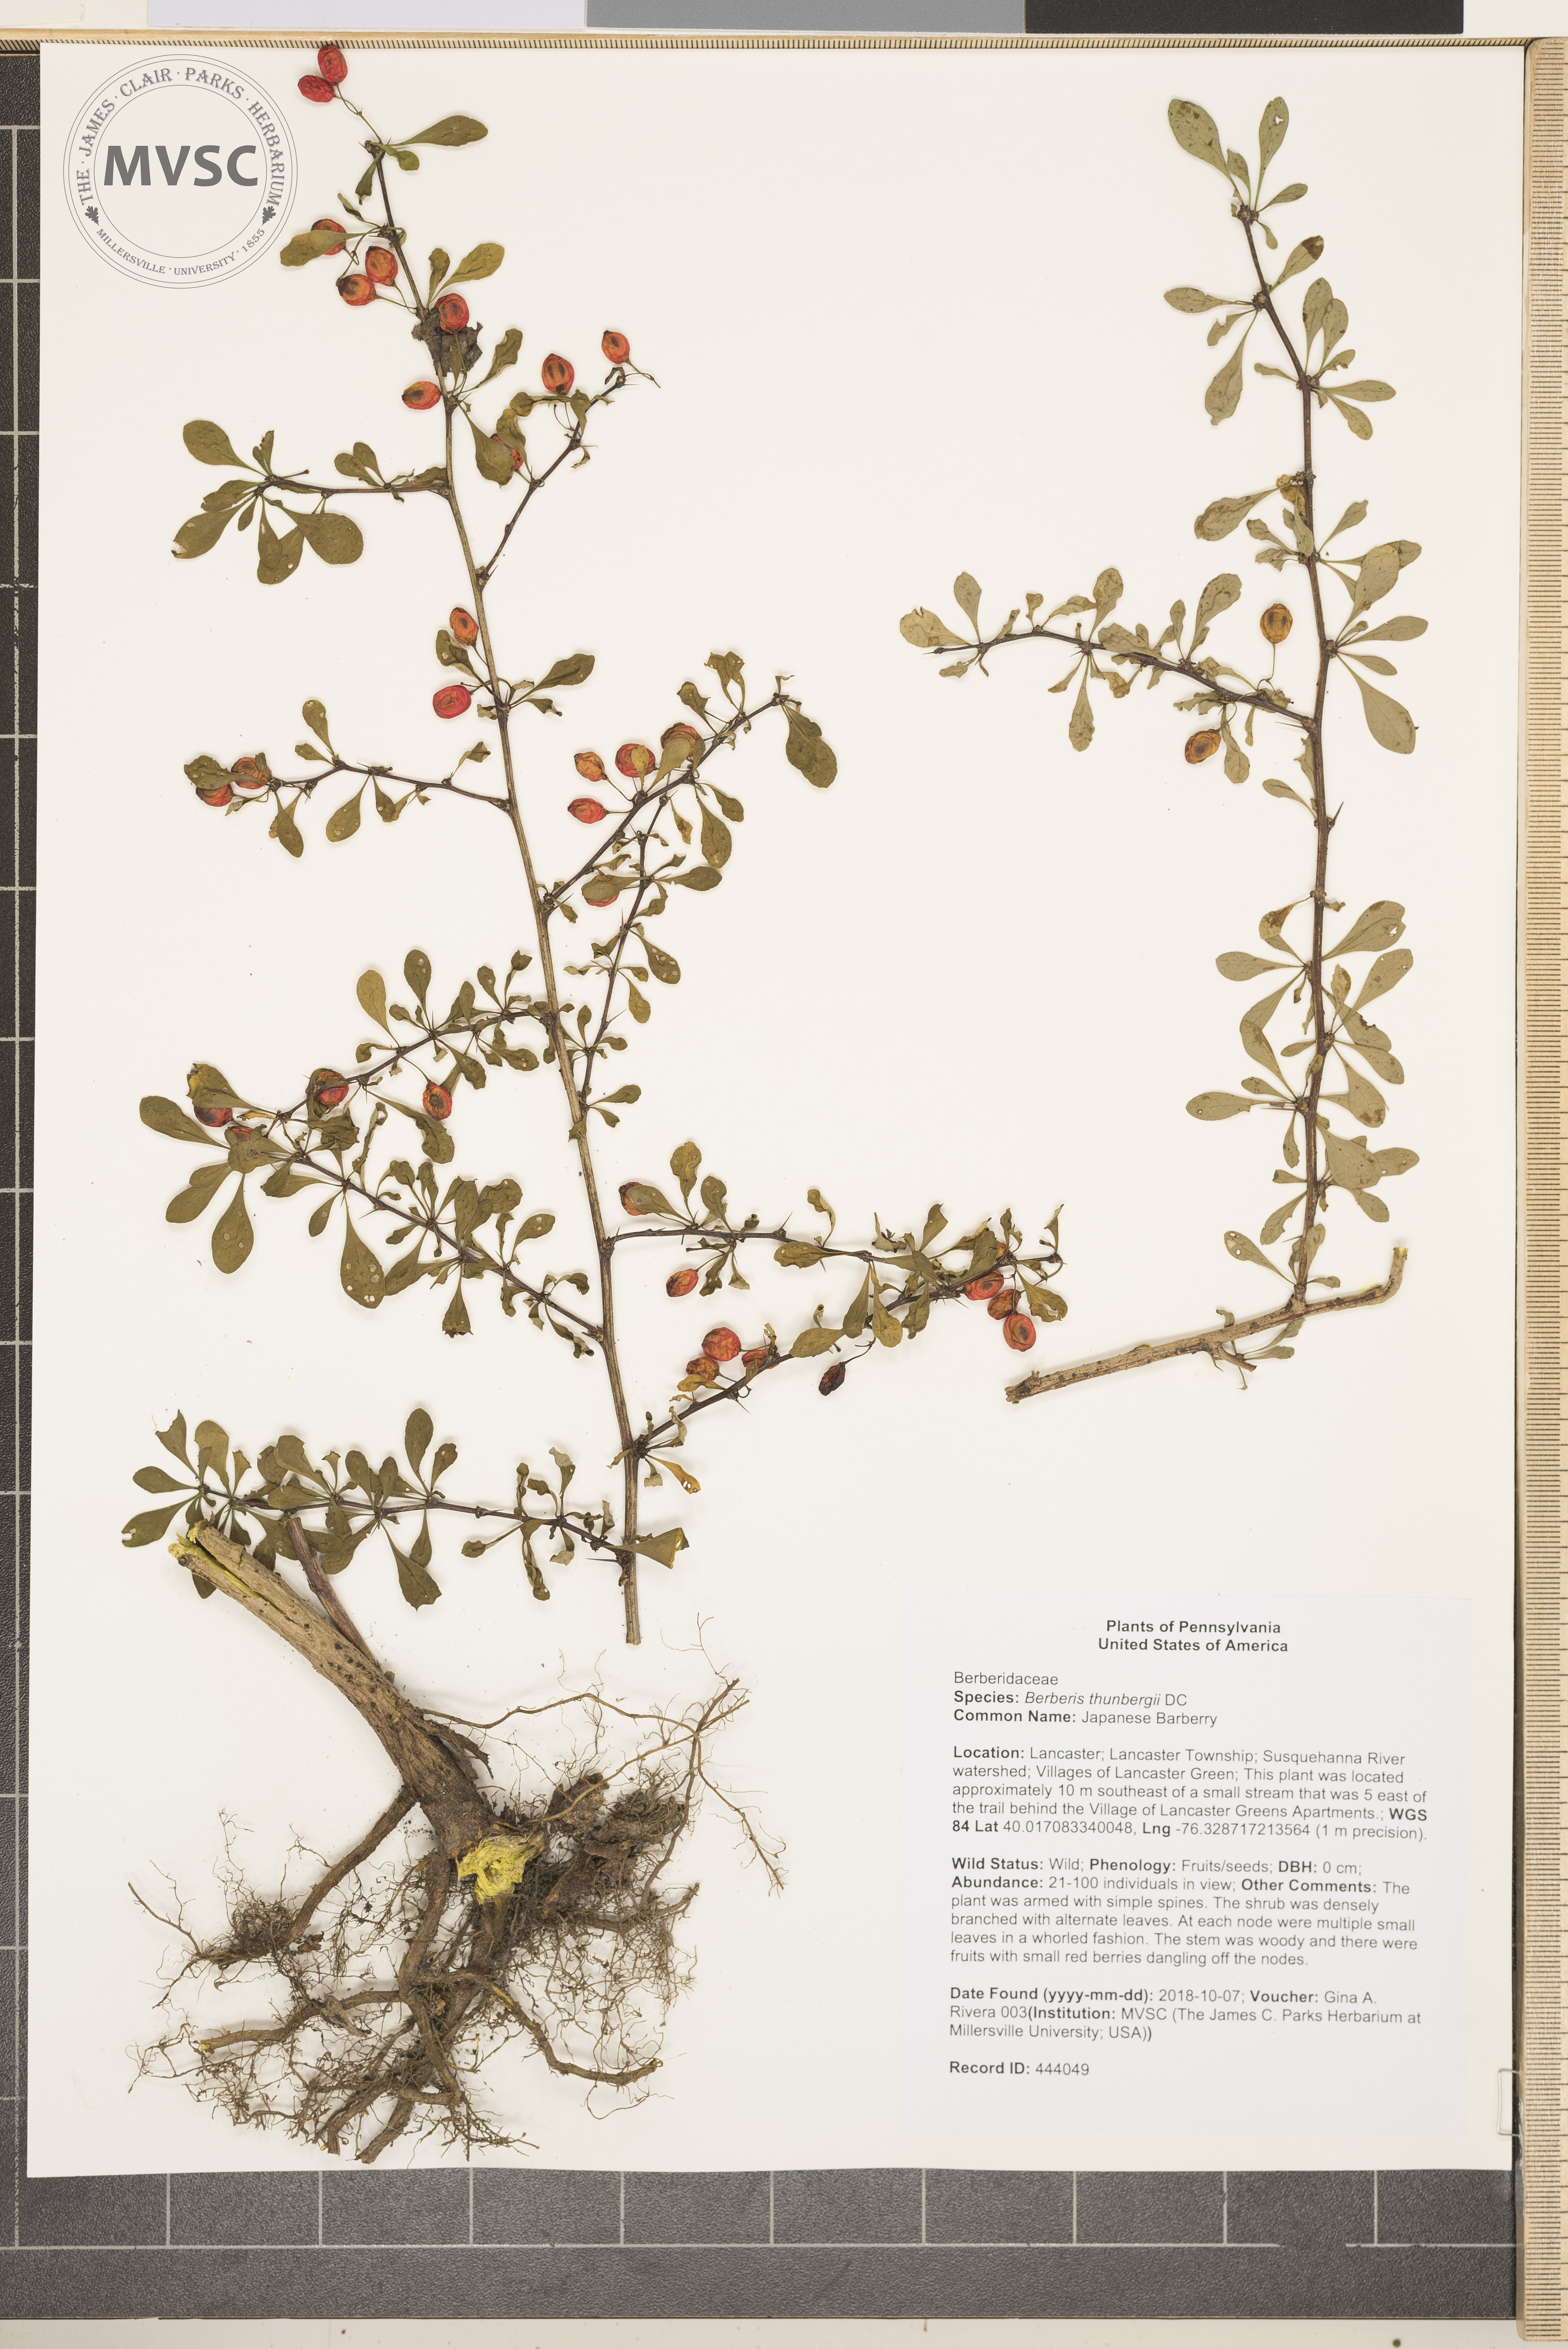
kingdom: Plantae
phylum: Tracheophyta
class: Magnoliopsida
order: Ranunculales
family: Berberidaceae
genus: Berberis
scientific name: Berberis thunbergii
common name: Japanese Barberry
